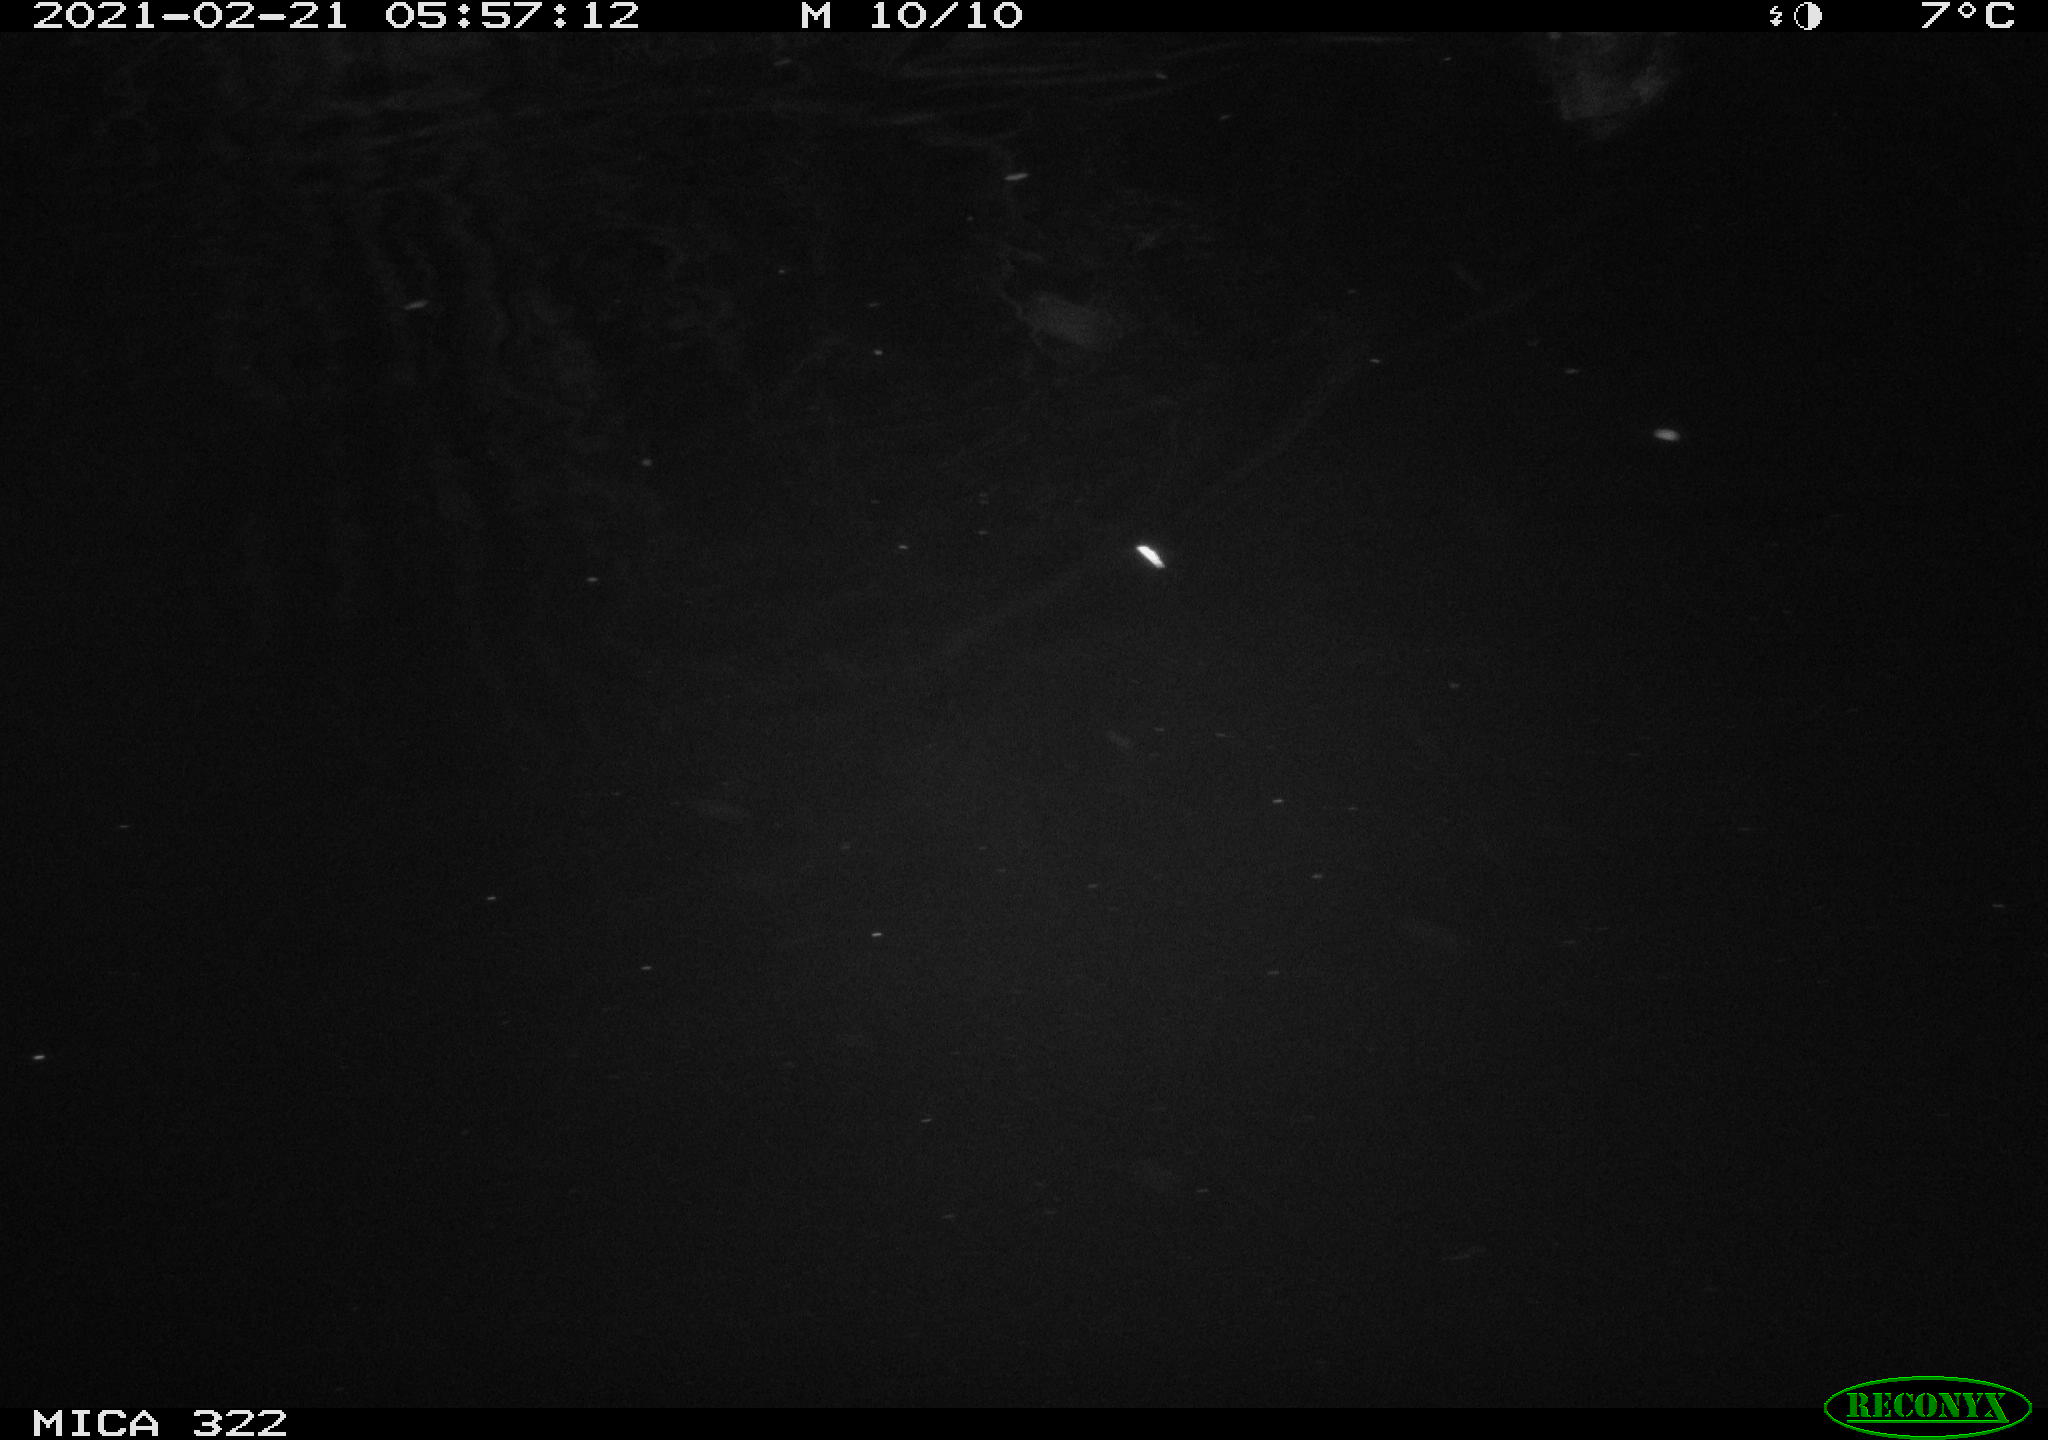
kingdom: Animalia
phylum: Chordata
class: Aves
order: Anseriformes
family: Anatidae
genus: Mareca
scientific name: Mareca strepera
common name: Gadwall
